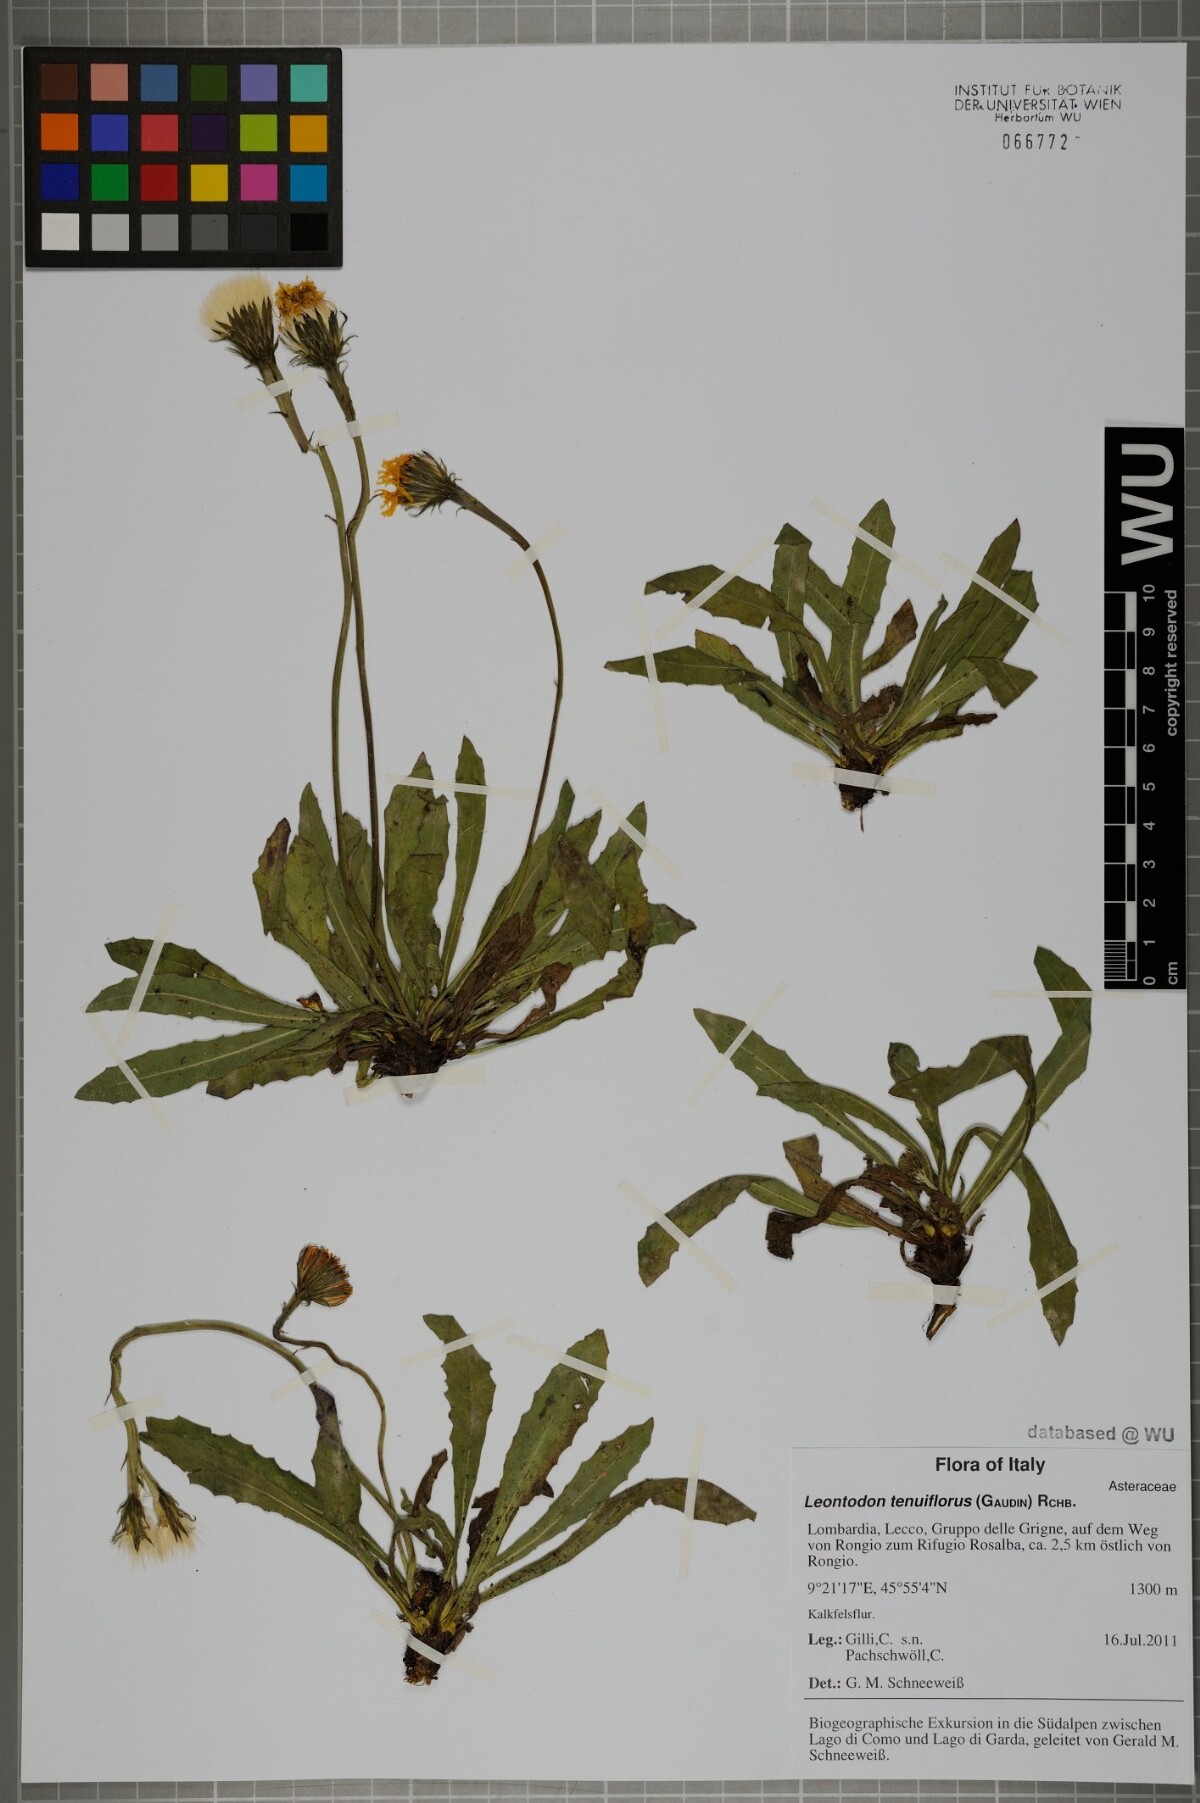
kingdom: Plantae
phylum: Tracheophyta
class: Magnoliopsida
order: Asterales
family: Asteraceae
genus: Leontodon
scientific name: Leontodon tenuiflorus
